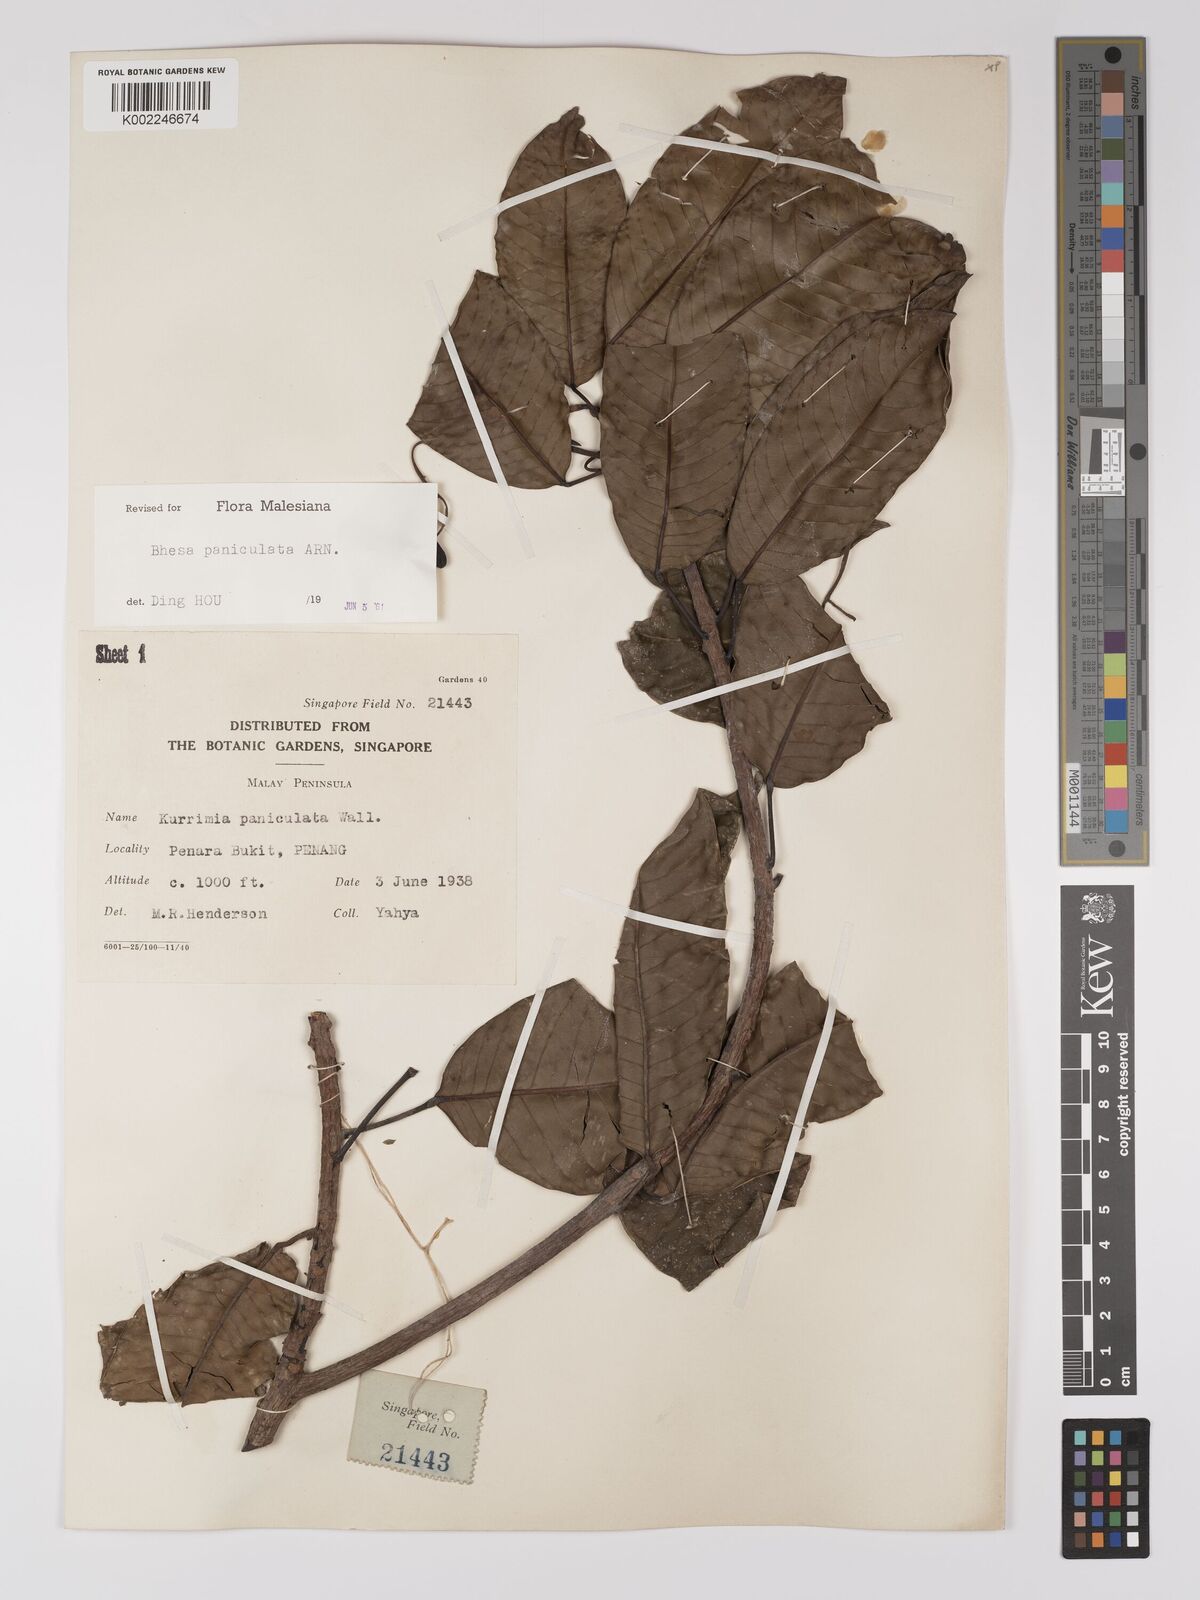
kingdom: Plantae
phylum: Tracheophyta
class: Magnoliopsida
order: Malpighiales
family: Centroplacaceae
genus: Bhesa
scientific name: Bhesa paniculata
